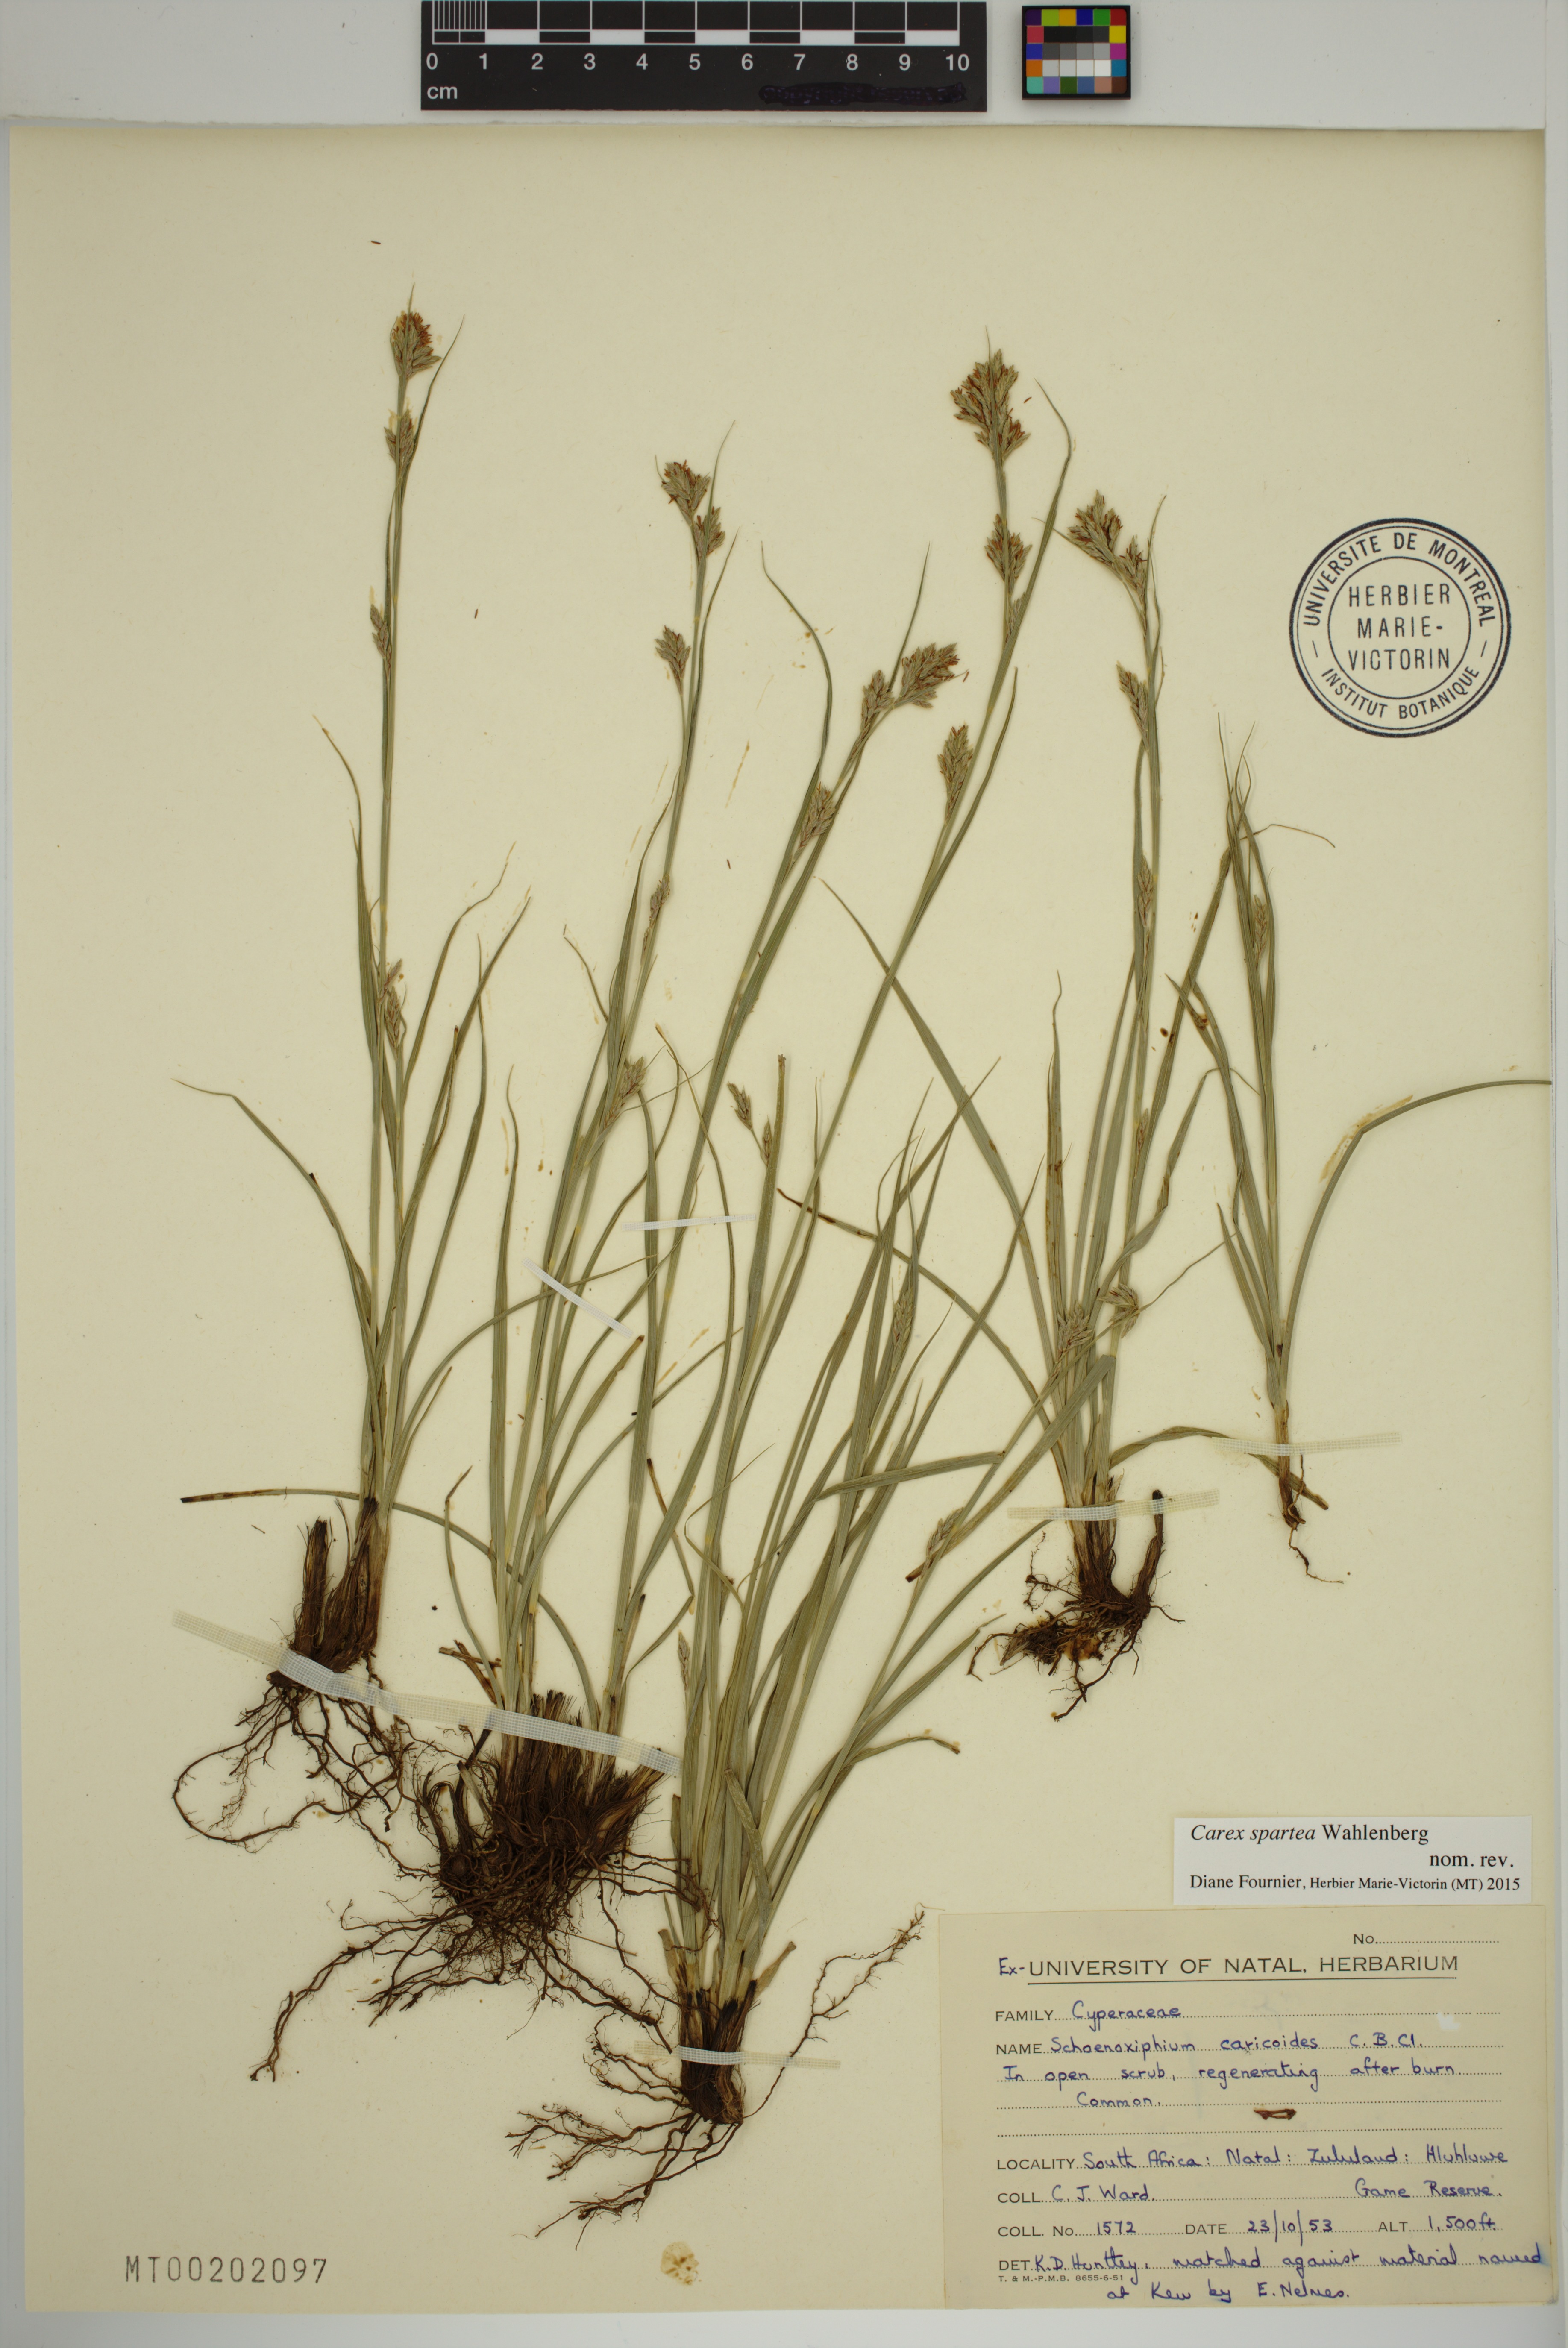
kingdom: Plantae
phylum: Tracheophyta
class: Liliopsida
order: Poales
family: Cyperaceae
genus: Carex
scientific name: Carex spartea
